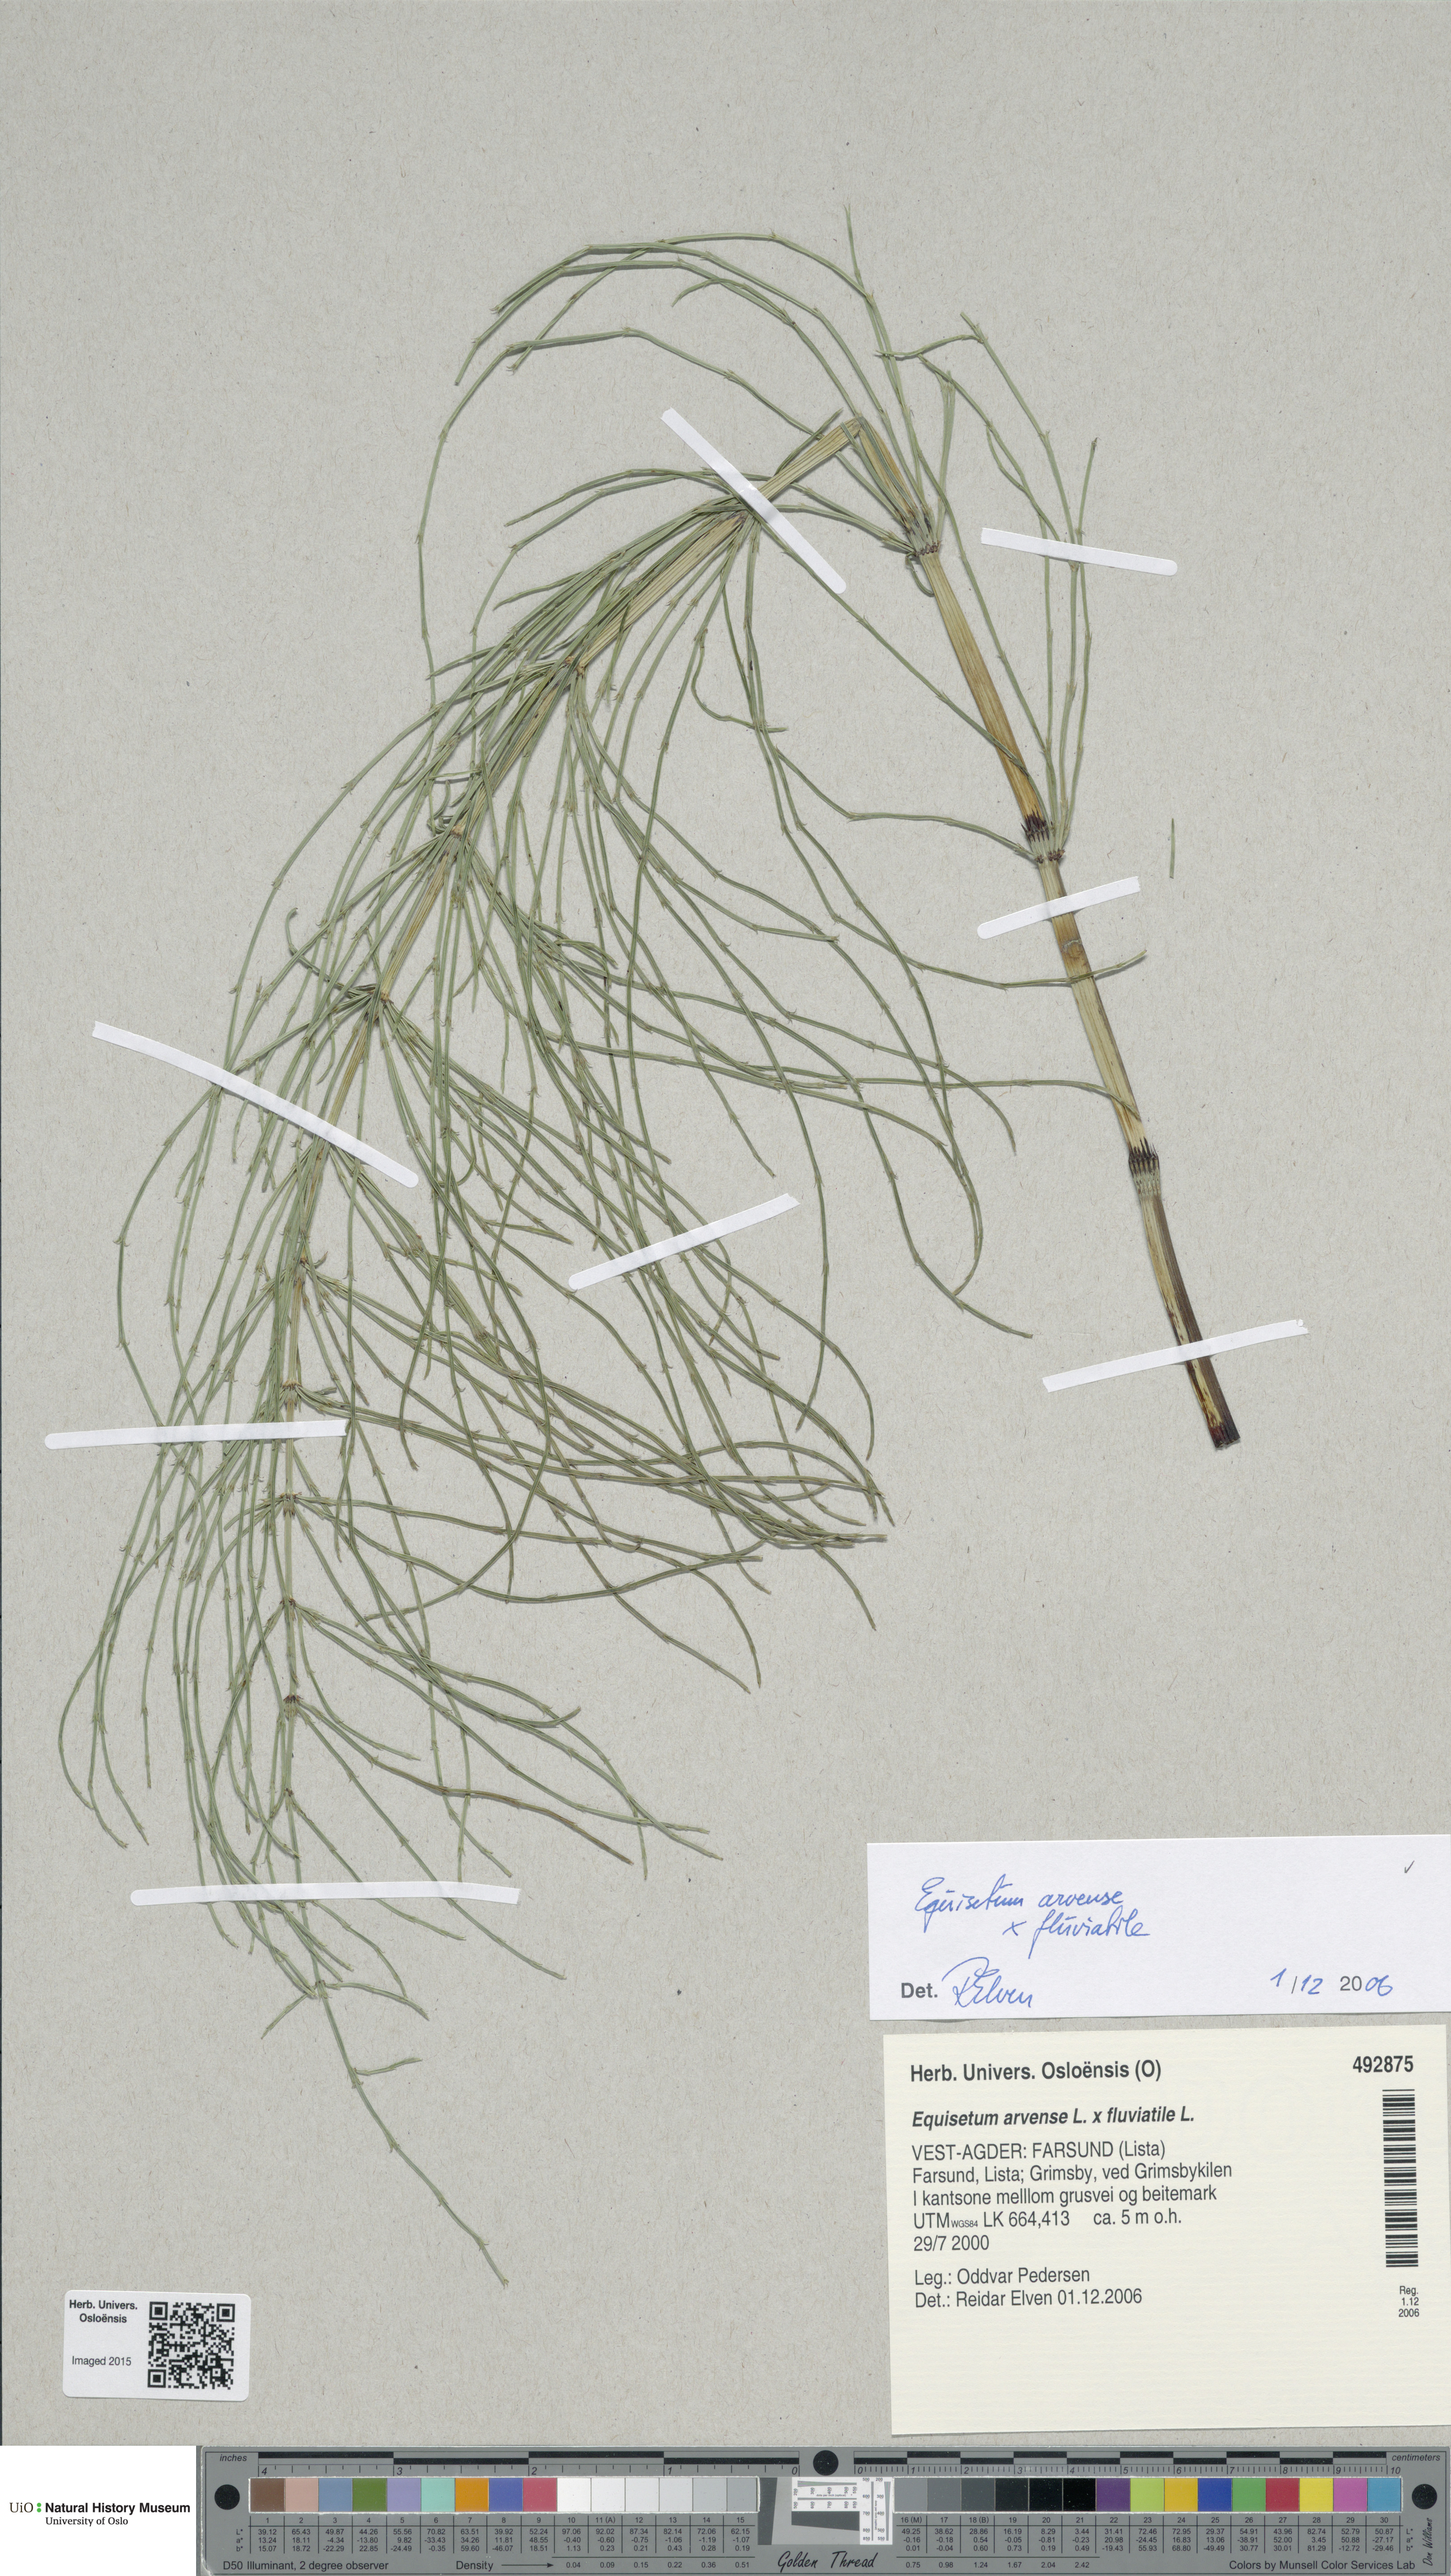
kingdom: Plantae
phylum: Tracheophyta
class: Polypodiopsida
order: Equisetales
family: Equisetaceae
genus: Equisetum
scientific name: Equisetum
